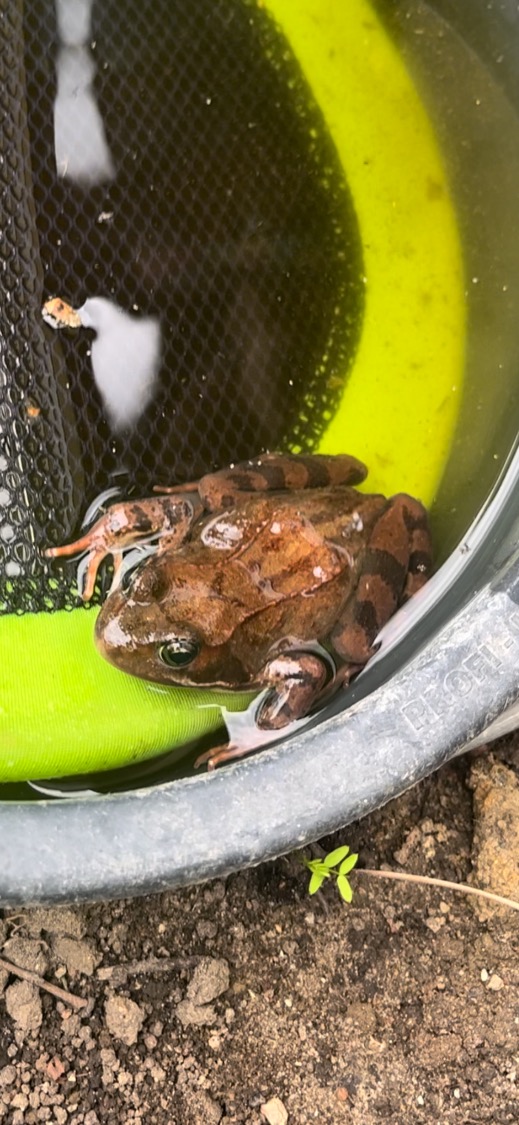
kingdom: Animalia
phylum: Chordata
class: Amphibia
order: Anura
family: Ranidae
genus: Rana
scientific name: Rana temporaria
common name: Butsnudet frø
